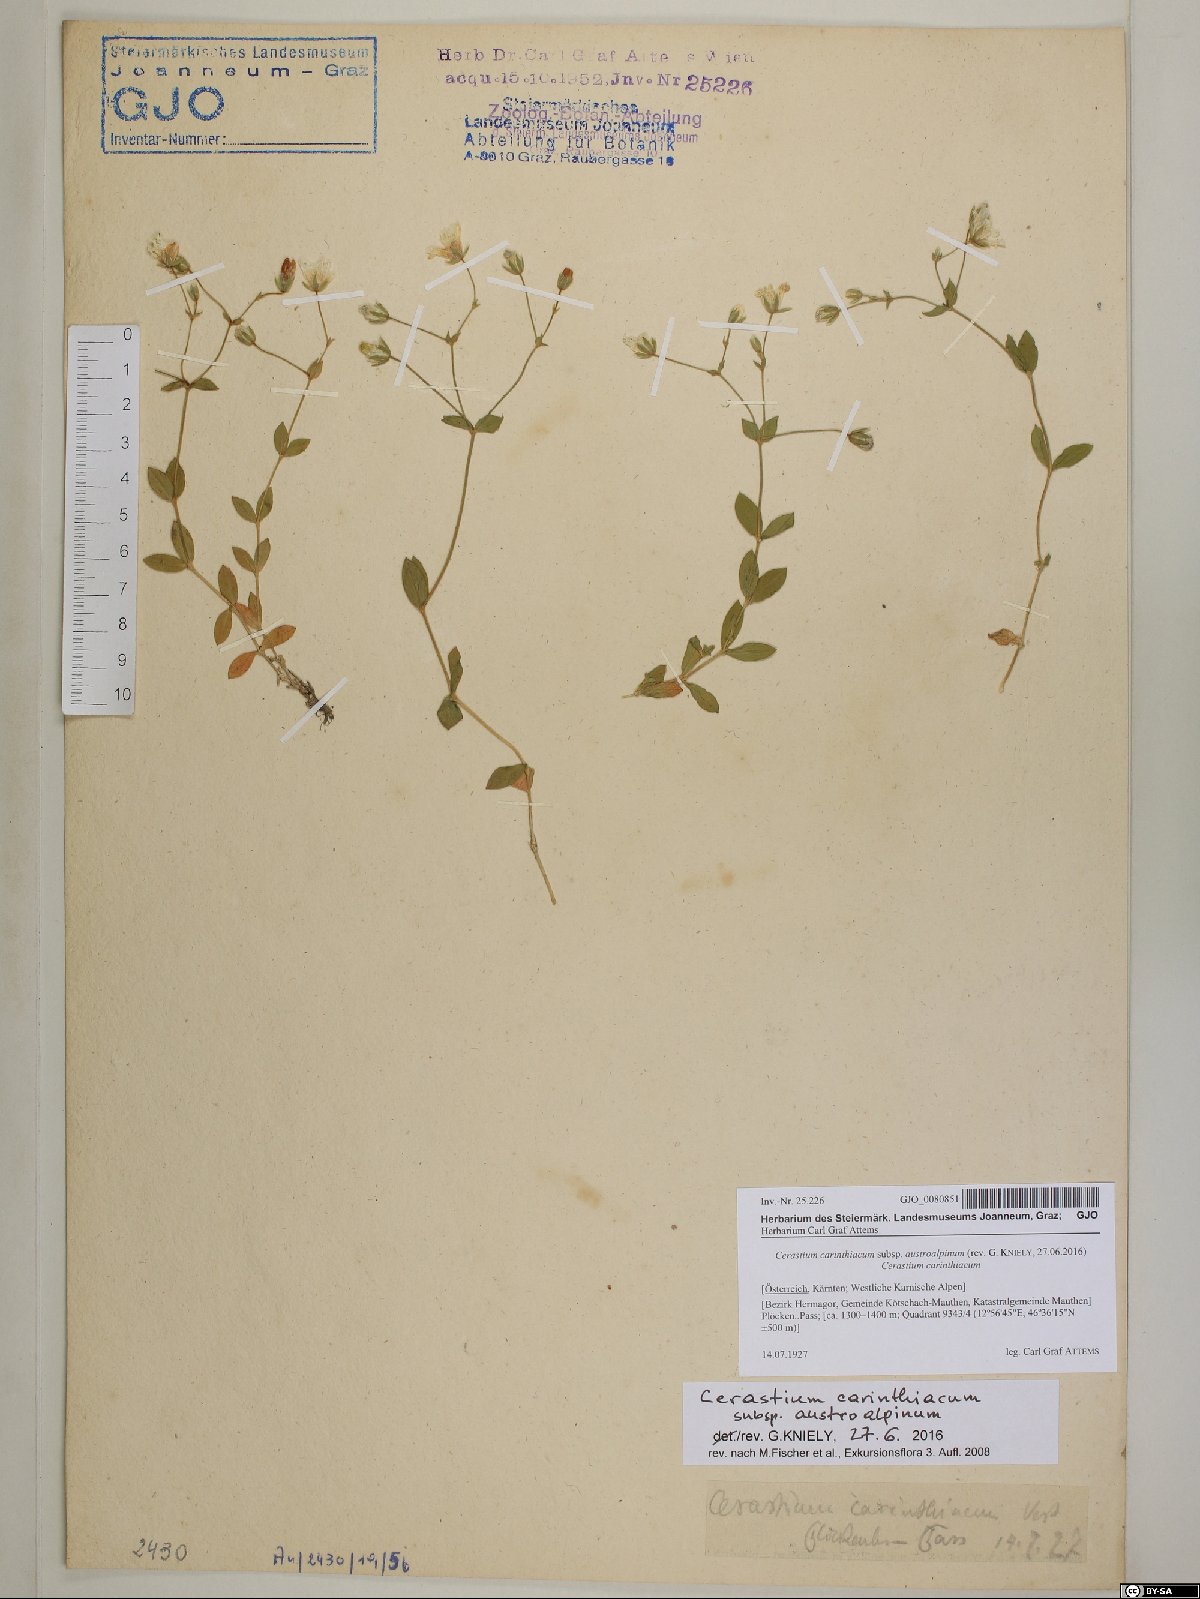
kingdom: Plantae
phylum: Tracheophyta
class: Magnoliopsida
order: Caryophyllales
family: Caryophyllaceae
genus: Cerastium
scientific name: Cerastium carinthiacum
